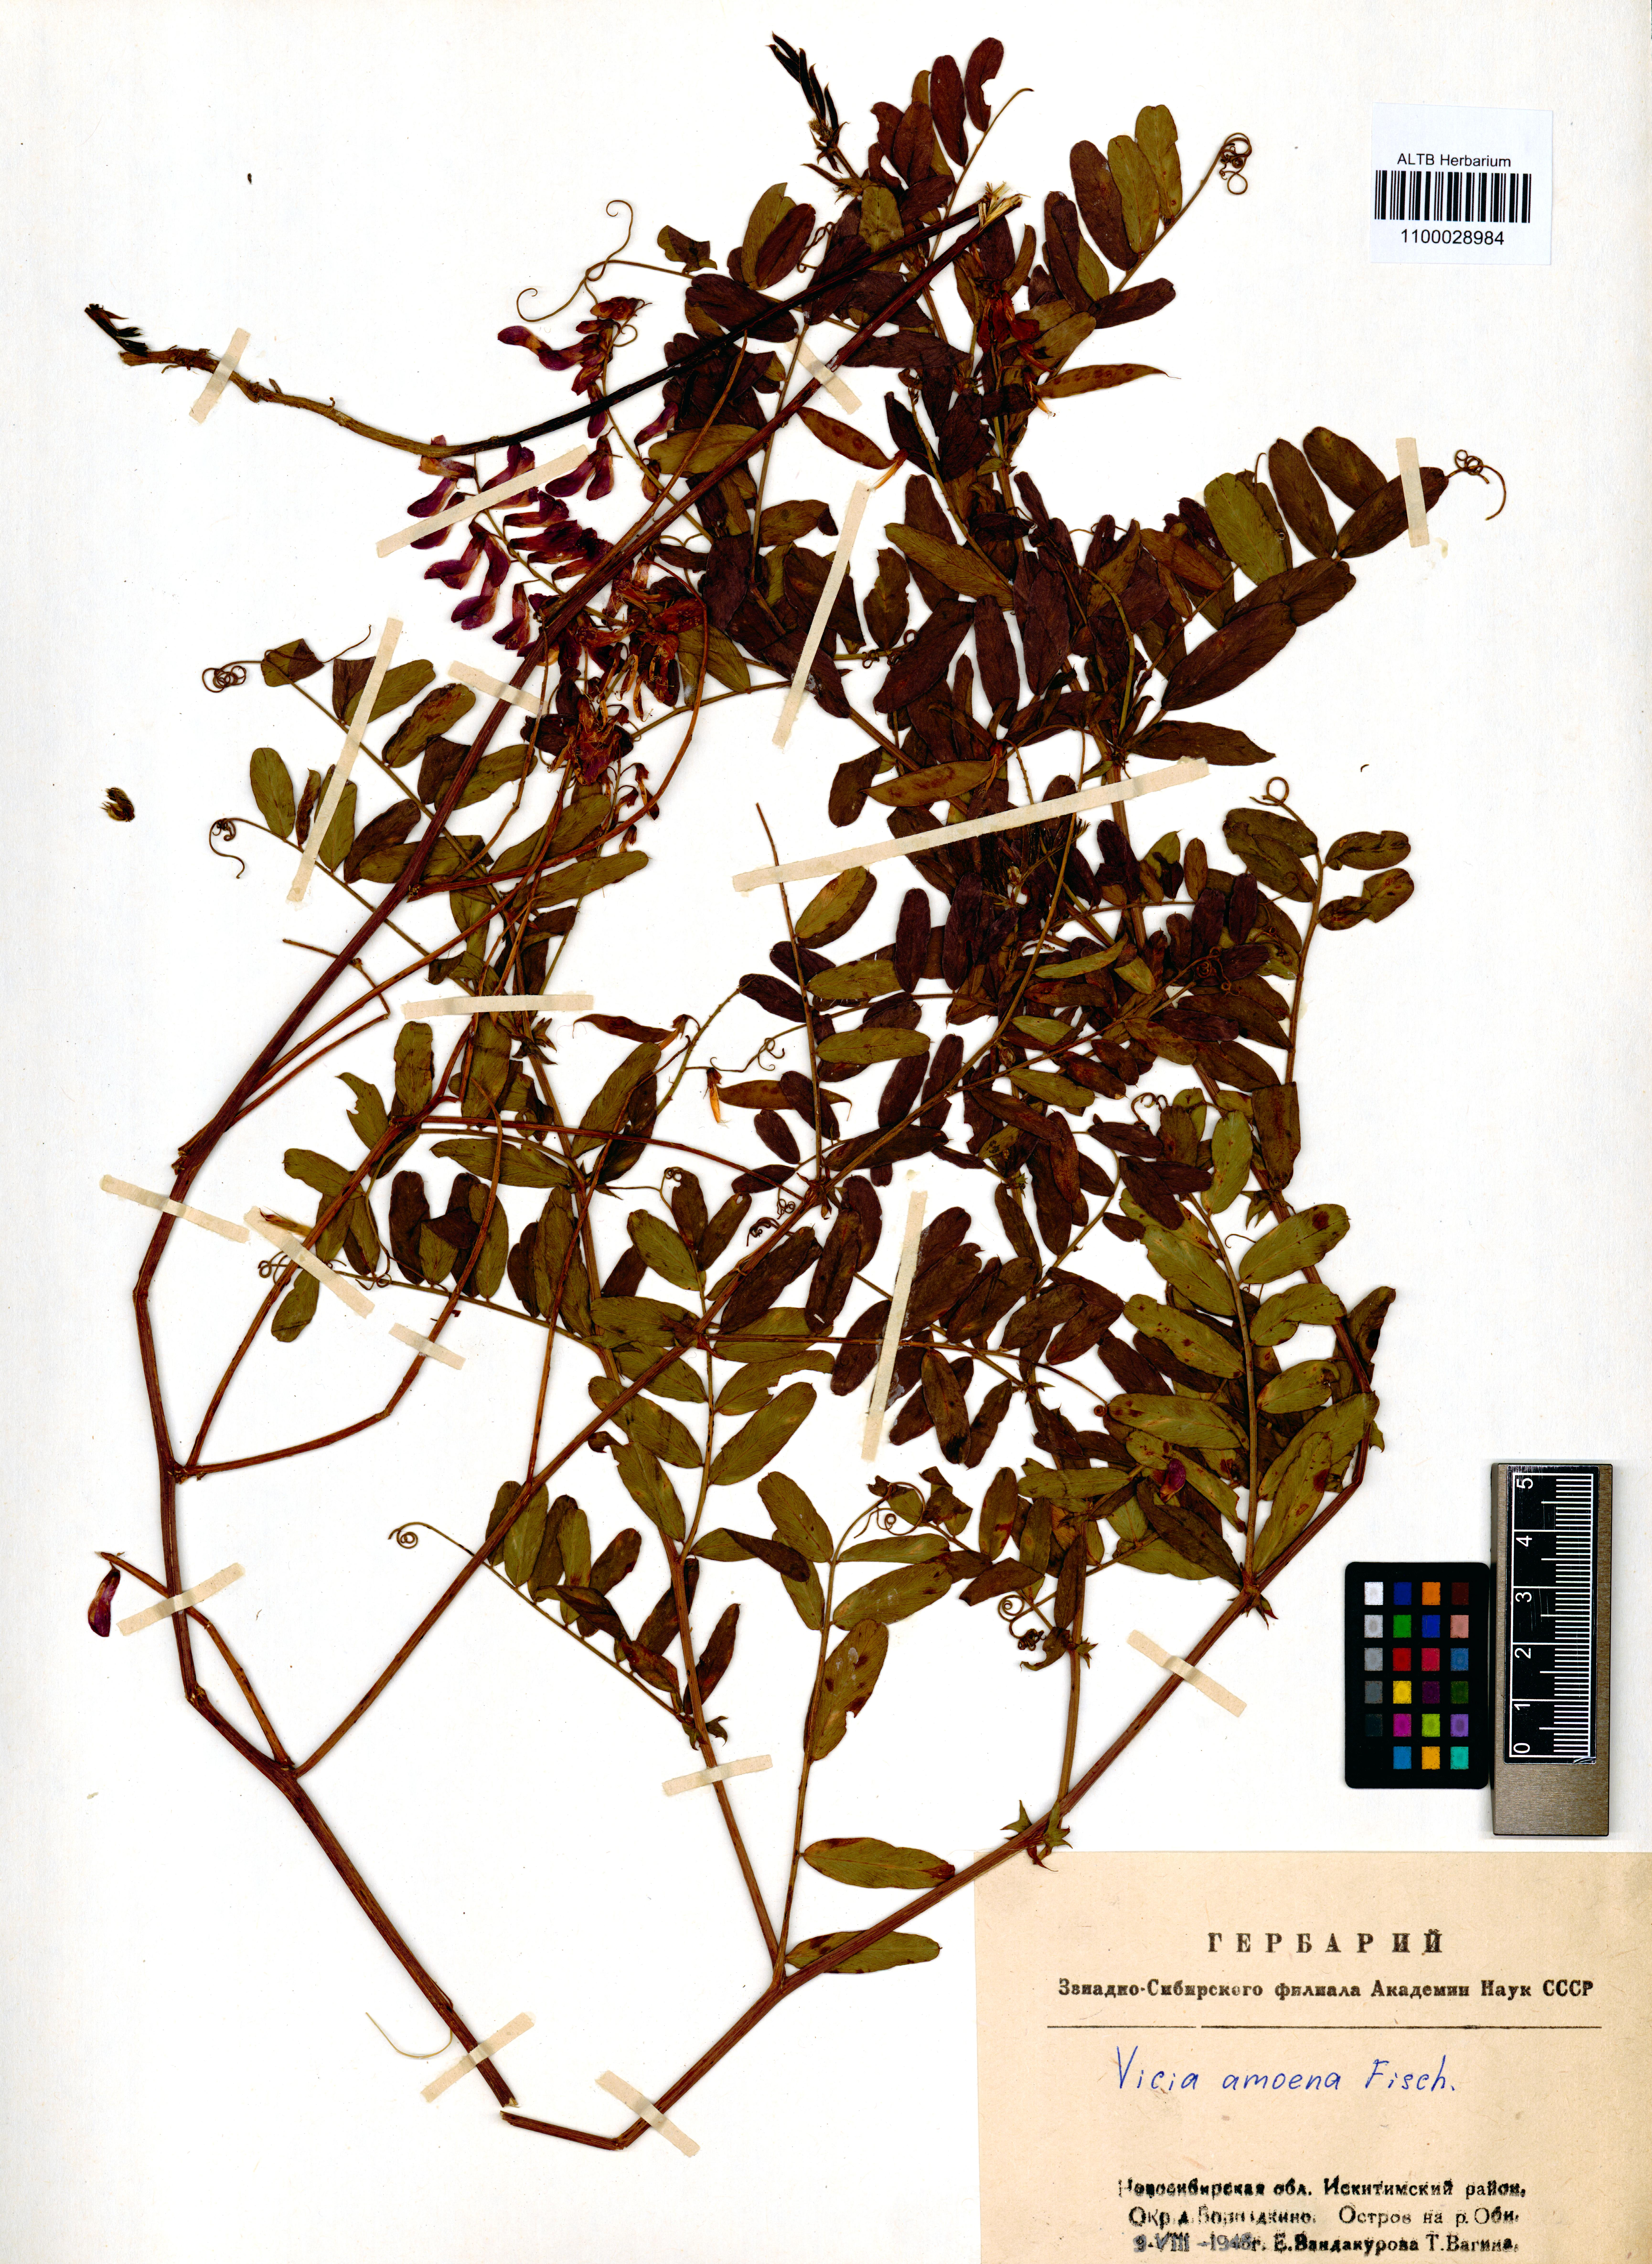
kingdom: Plantae
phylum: Tracheophyta
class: Magnoliopsida
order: Fabales
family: Fabaceae
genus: Vicia
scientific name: Vicia amoena
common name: Cheder ebs
